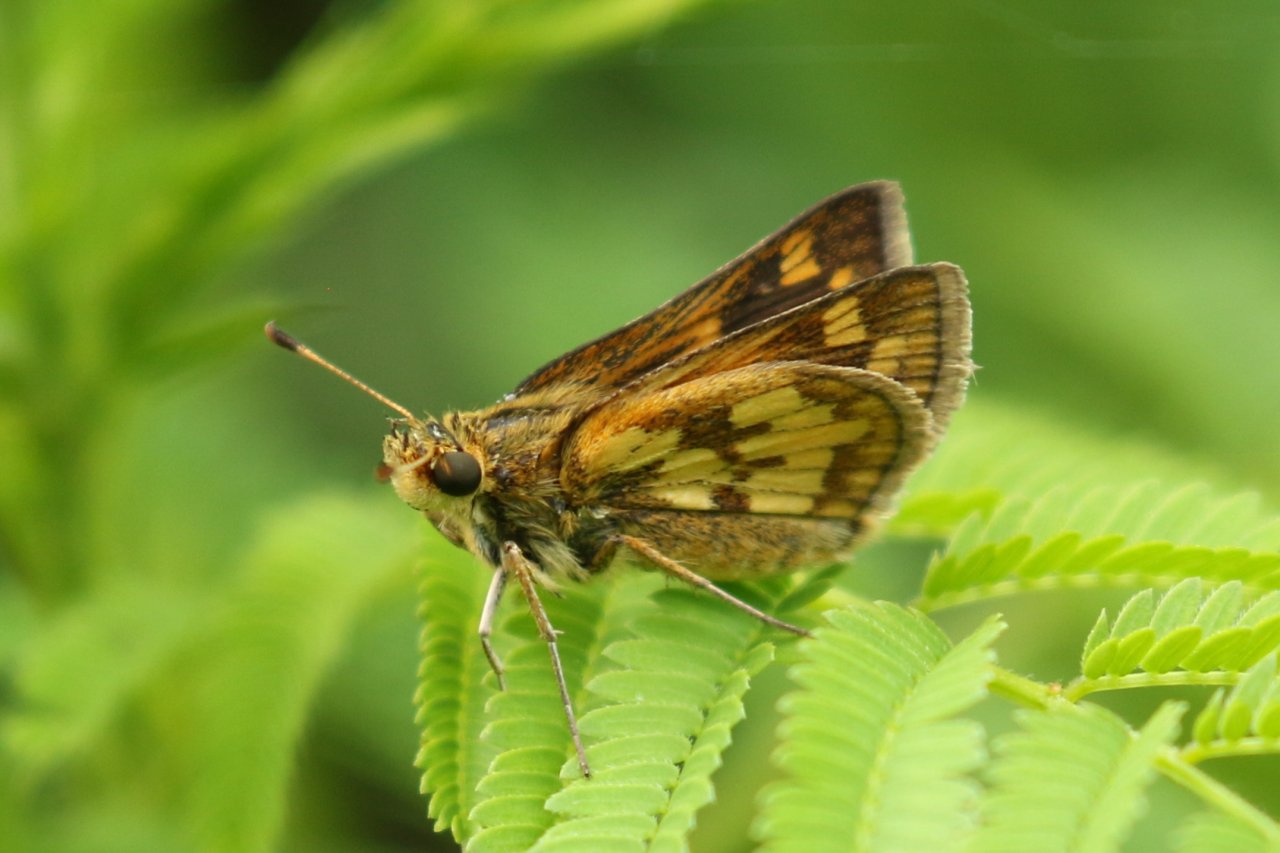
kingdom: Animalia
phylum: Arthropoda
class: Insecta
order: Lepidoptera
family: Hesperiidae
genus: Polites
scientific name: Polites coras
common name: Peck's Skipper
